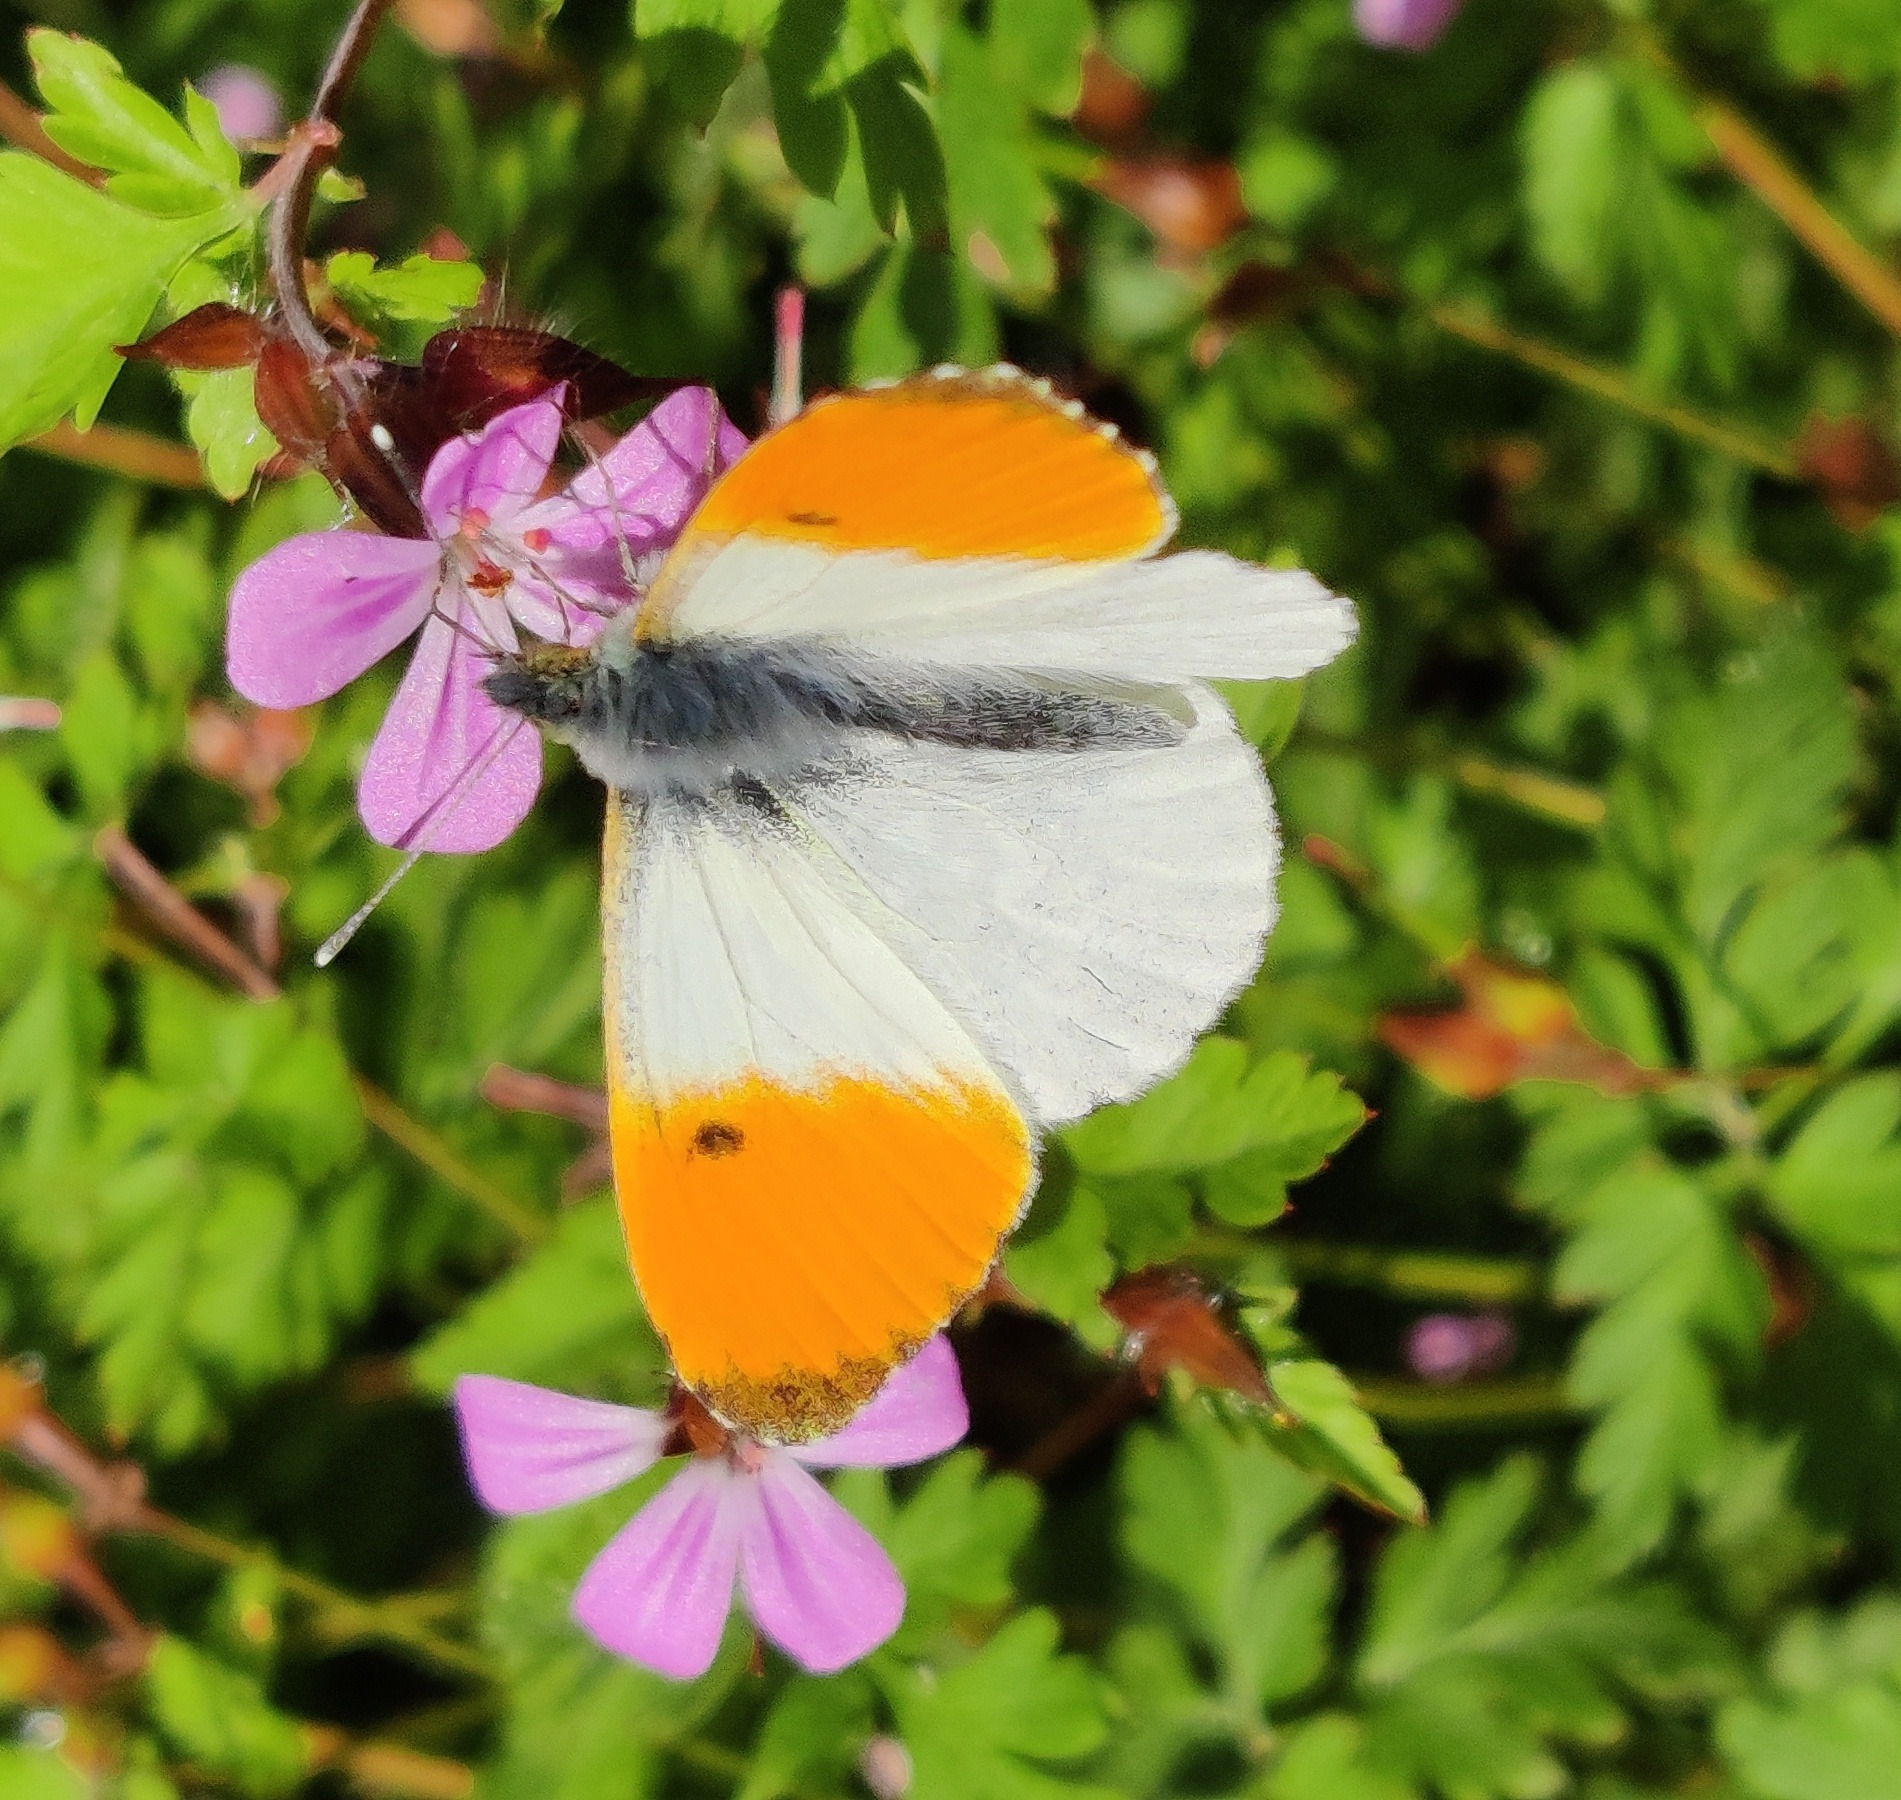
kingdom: Animalia
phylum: Arthropoda
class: Insecta
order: Lepidoptera
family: Pieridae
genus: Anthocharis
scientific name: Anthocharis cardamines
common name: Aurora
